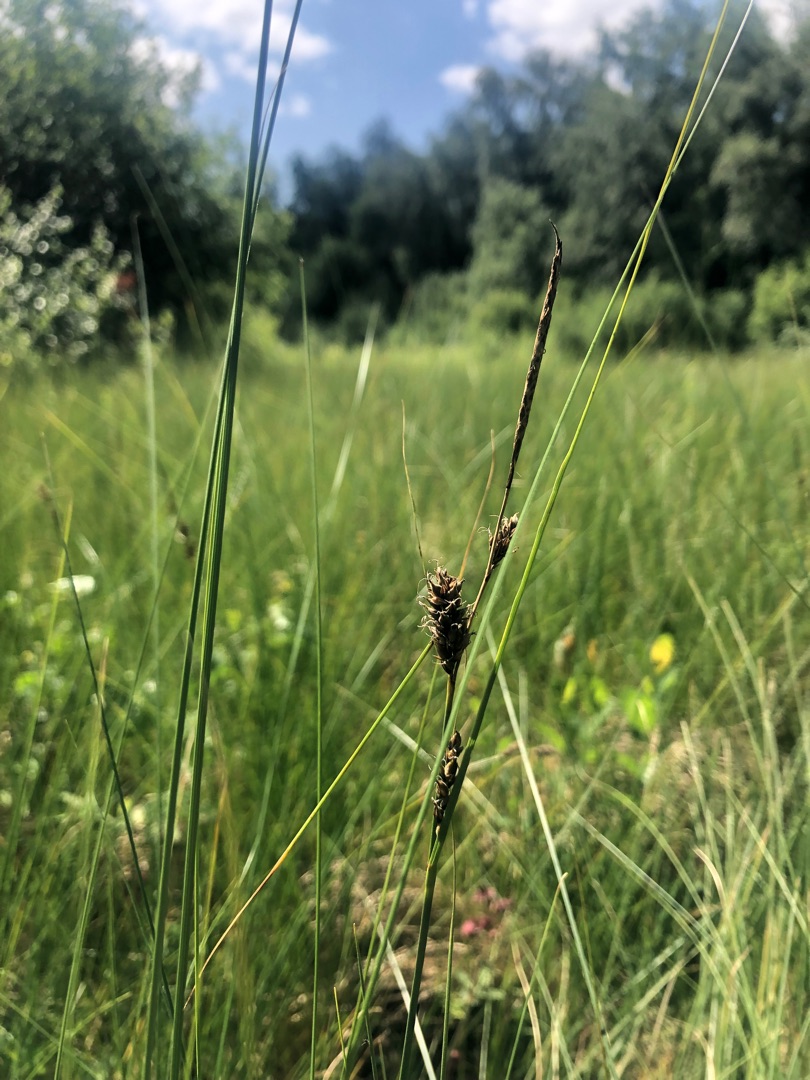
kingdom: Plantae
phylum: Tracheophyta
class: Liliopsida
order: Poales
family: Cyperaceae
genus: Carex
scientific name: Carex lasiocarpa
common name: Tråd-star
